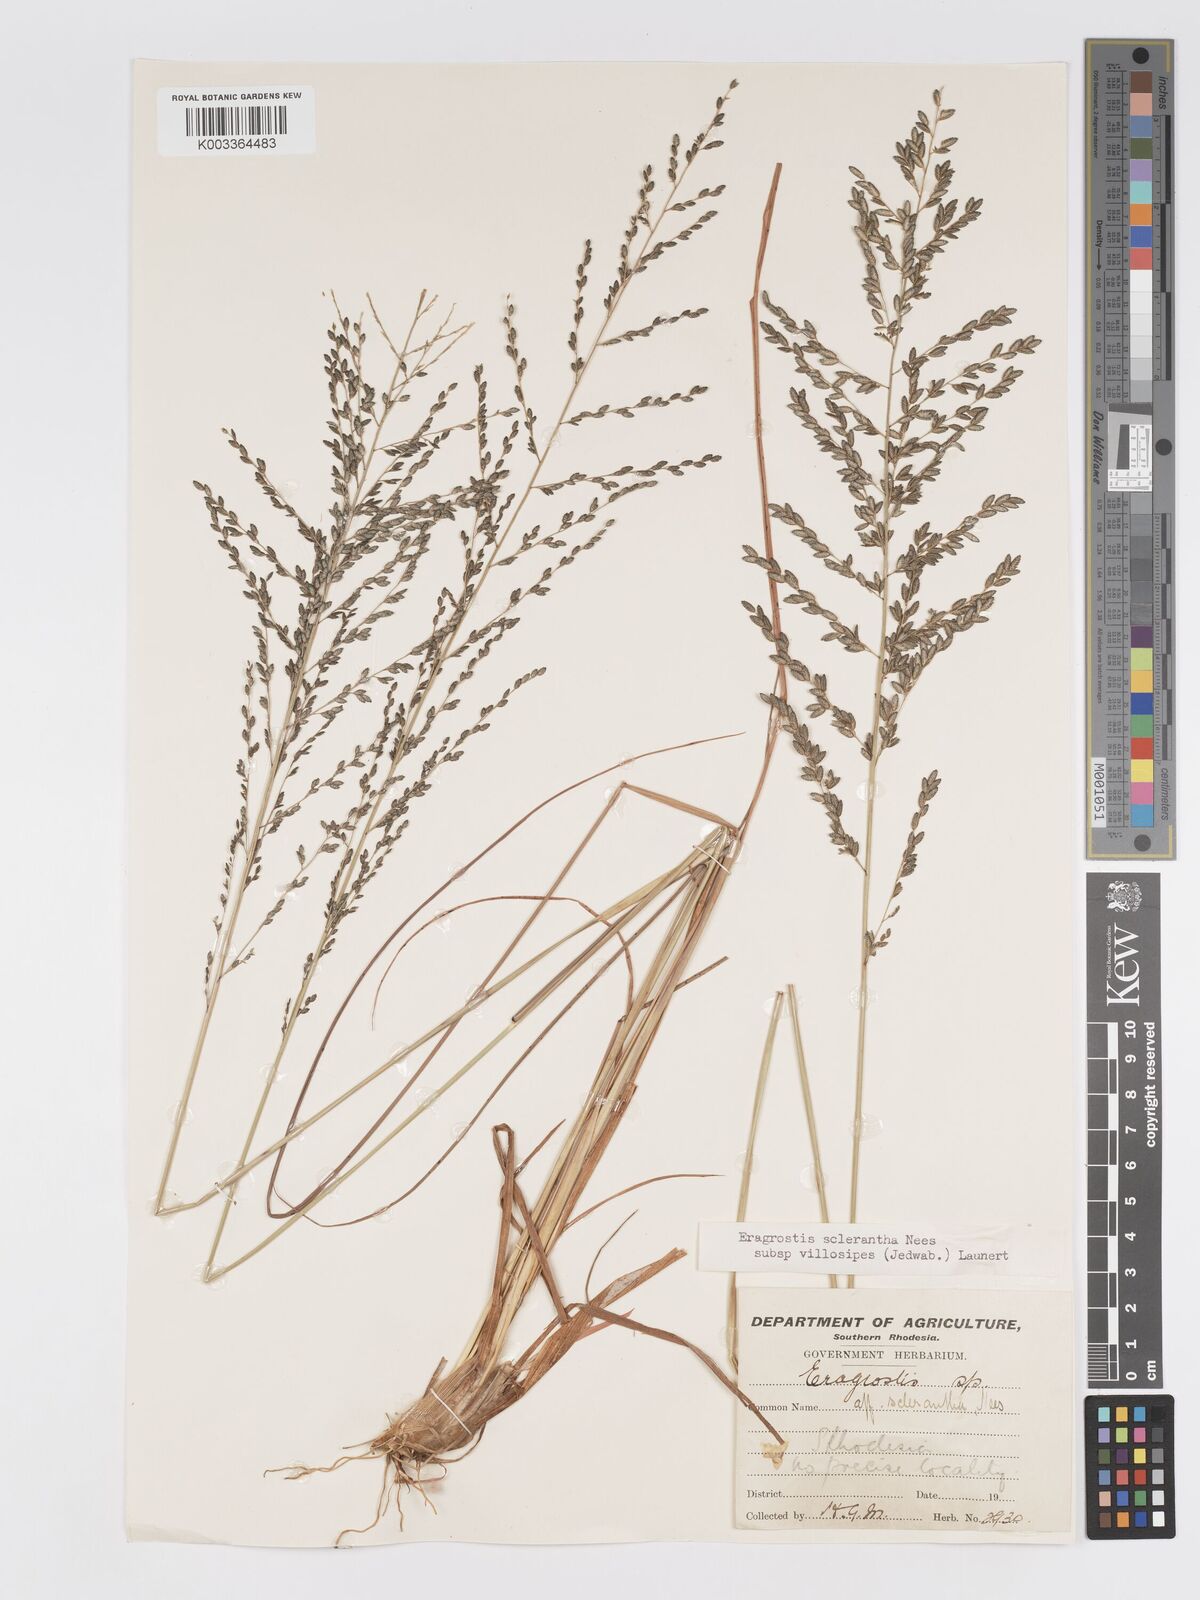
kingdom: Plantae
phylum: Tracheophyta
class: Liliopsida
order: Poales
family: Poaceae
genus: Eragrostis
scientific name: Eragrostis sclerantha
